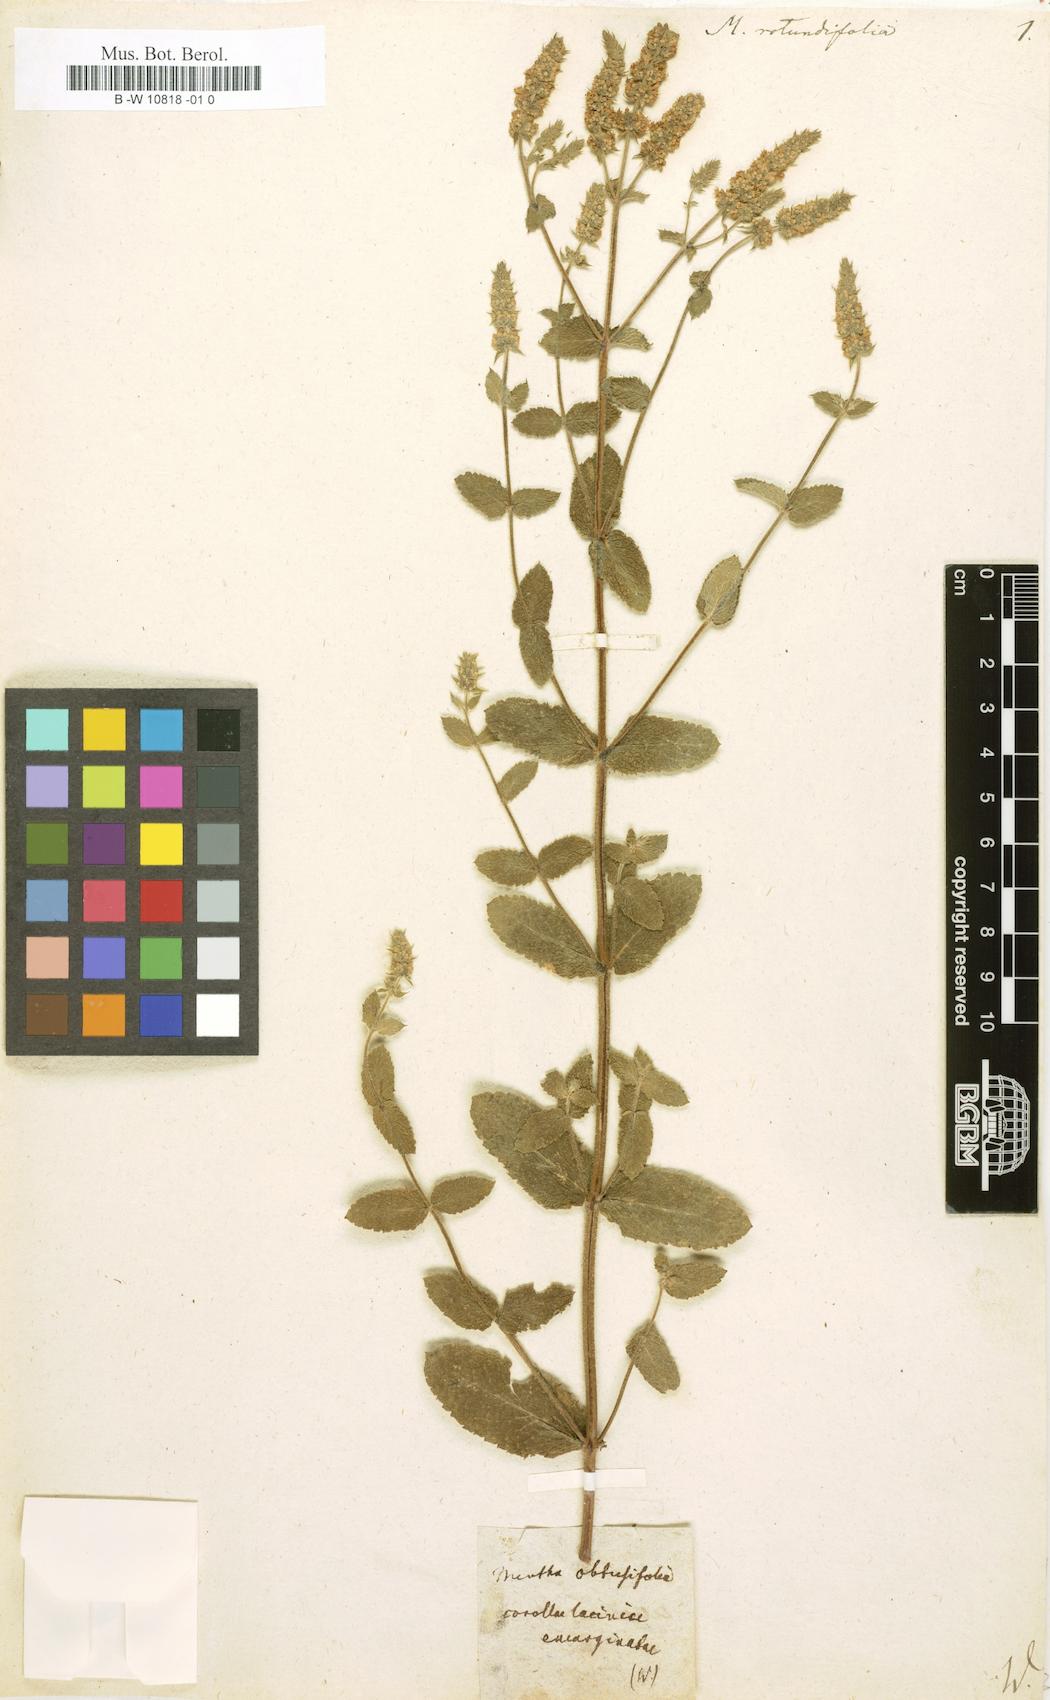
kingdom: Plantae
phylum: Tracheophyta
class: Magnoliopsida
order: Lamiales
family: Lamiaceae
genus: Mentha
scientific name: Mentha rotundifolia
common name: Bigleaf mint
